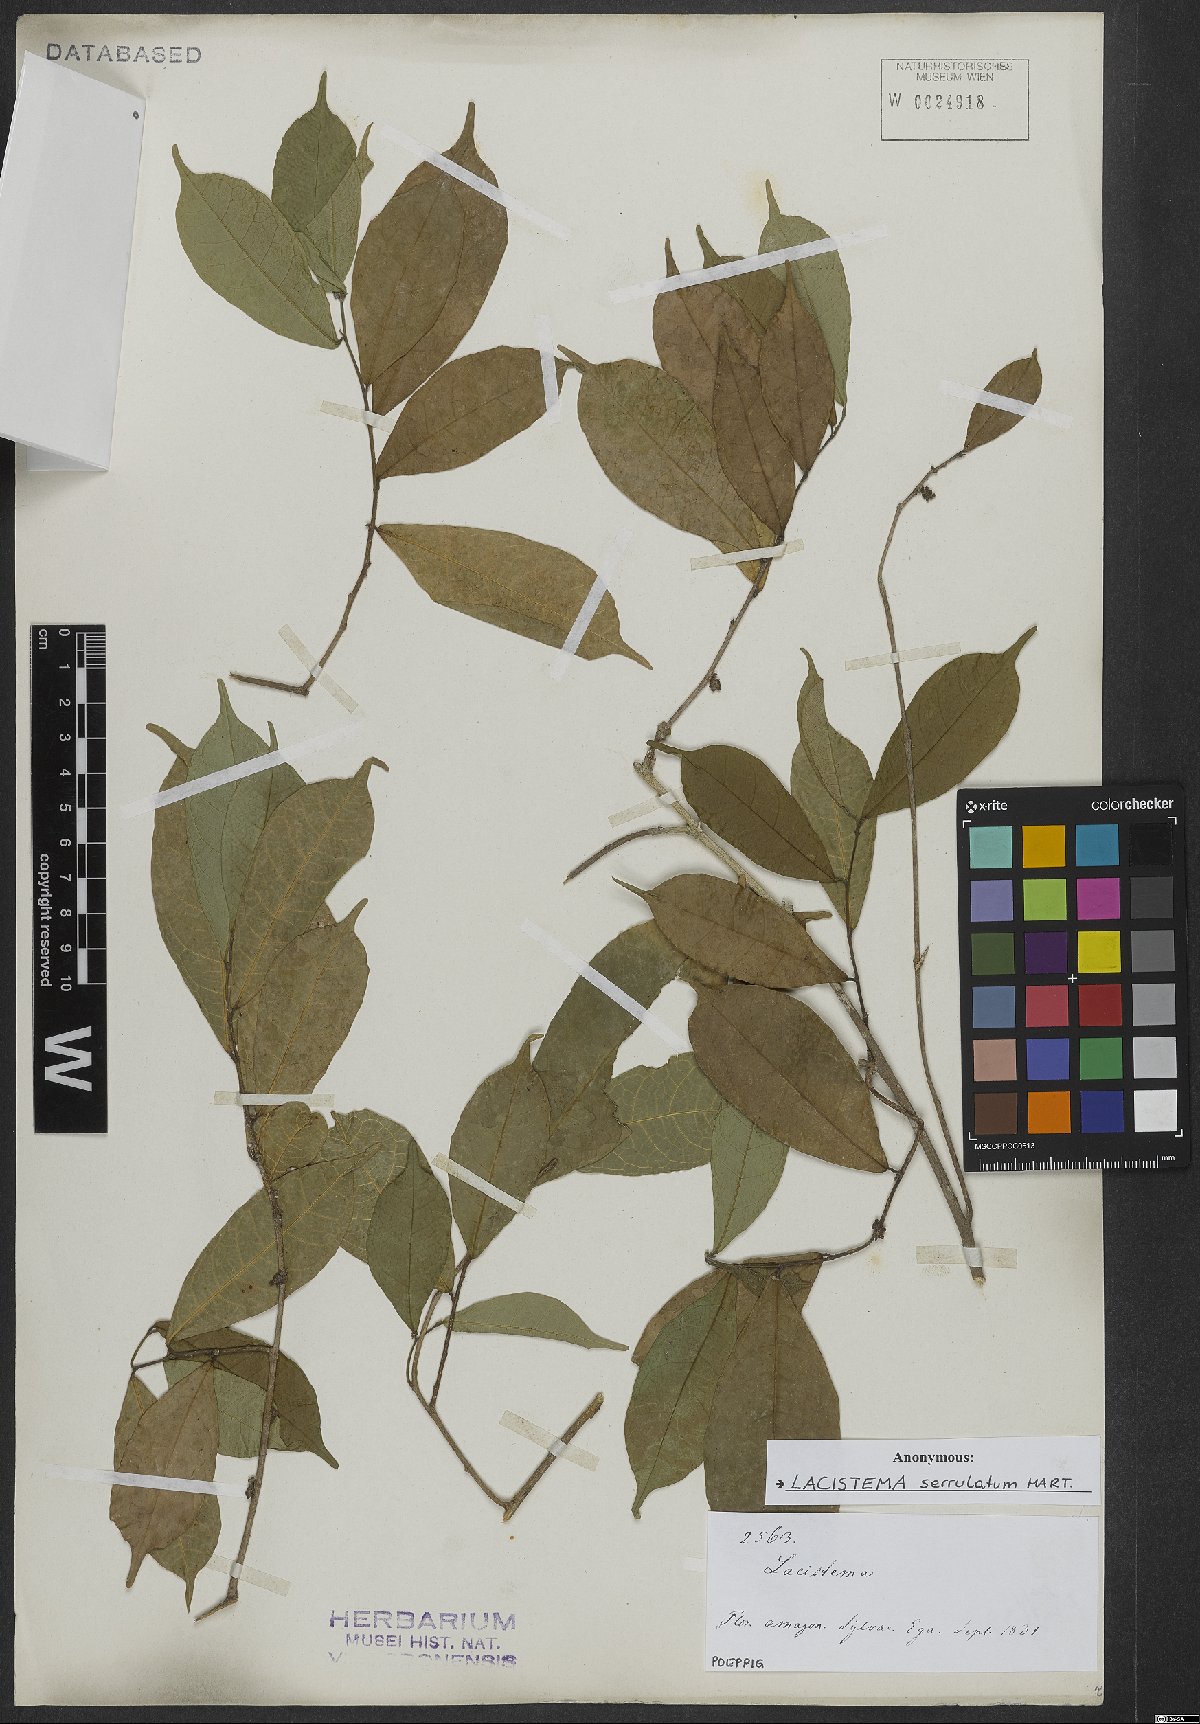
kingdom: Plantae
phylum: Tracheophyta
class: Magnoliopsida
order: Malpighiales
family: Lacistemataceae
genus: Lacistema
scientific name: Lacistema serrulatum
